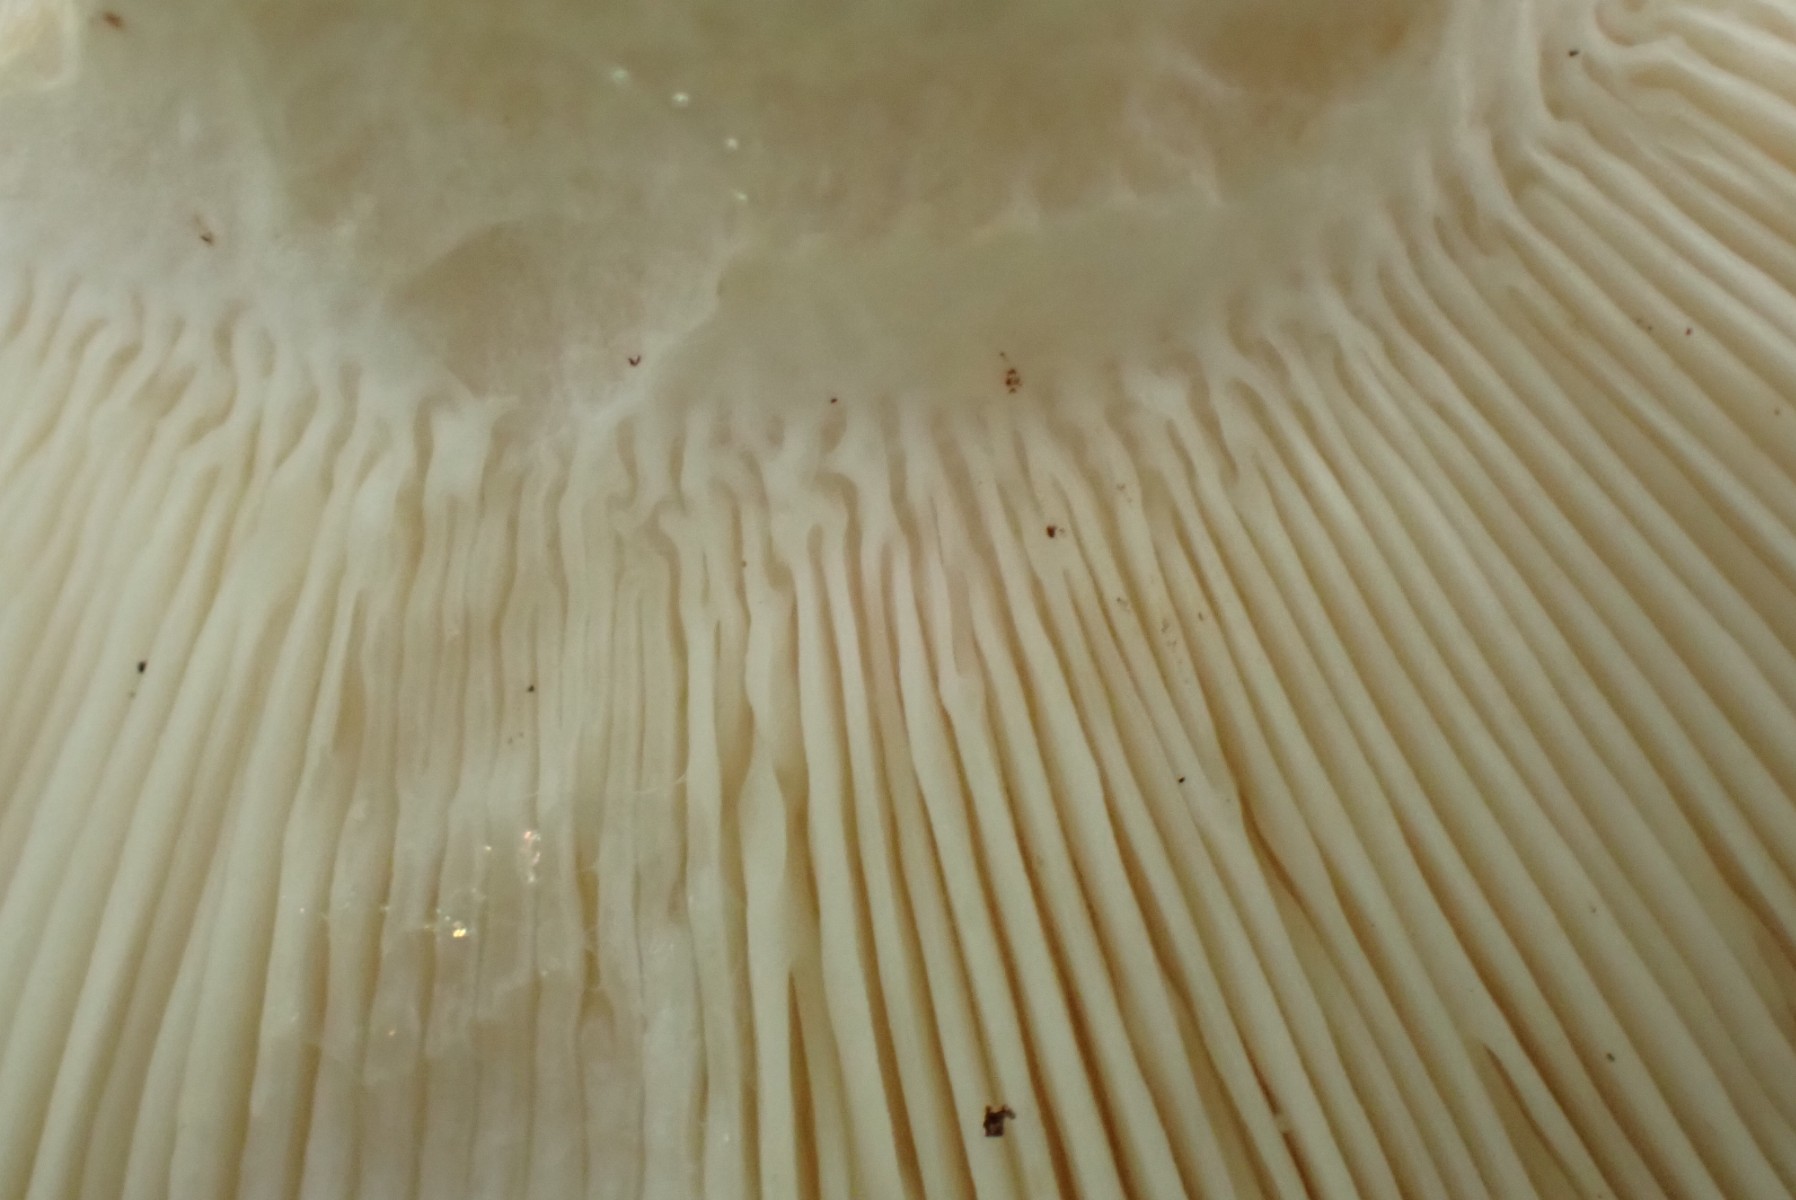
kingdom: Fungi
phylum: Basidiomycota
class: Agaricomycetes
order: Russulales
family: Russulaceae
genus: Russula
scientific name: Russula heterophylla
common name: gaffelbladet skørhat
